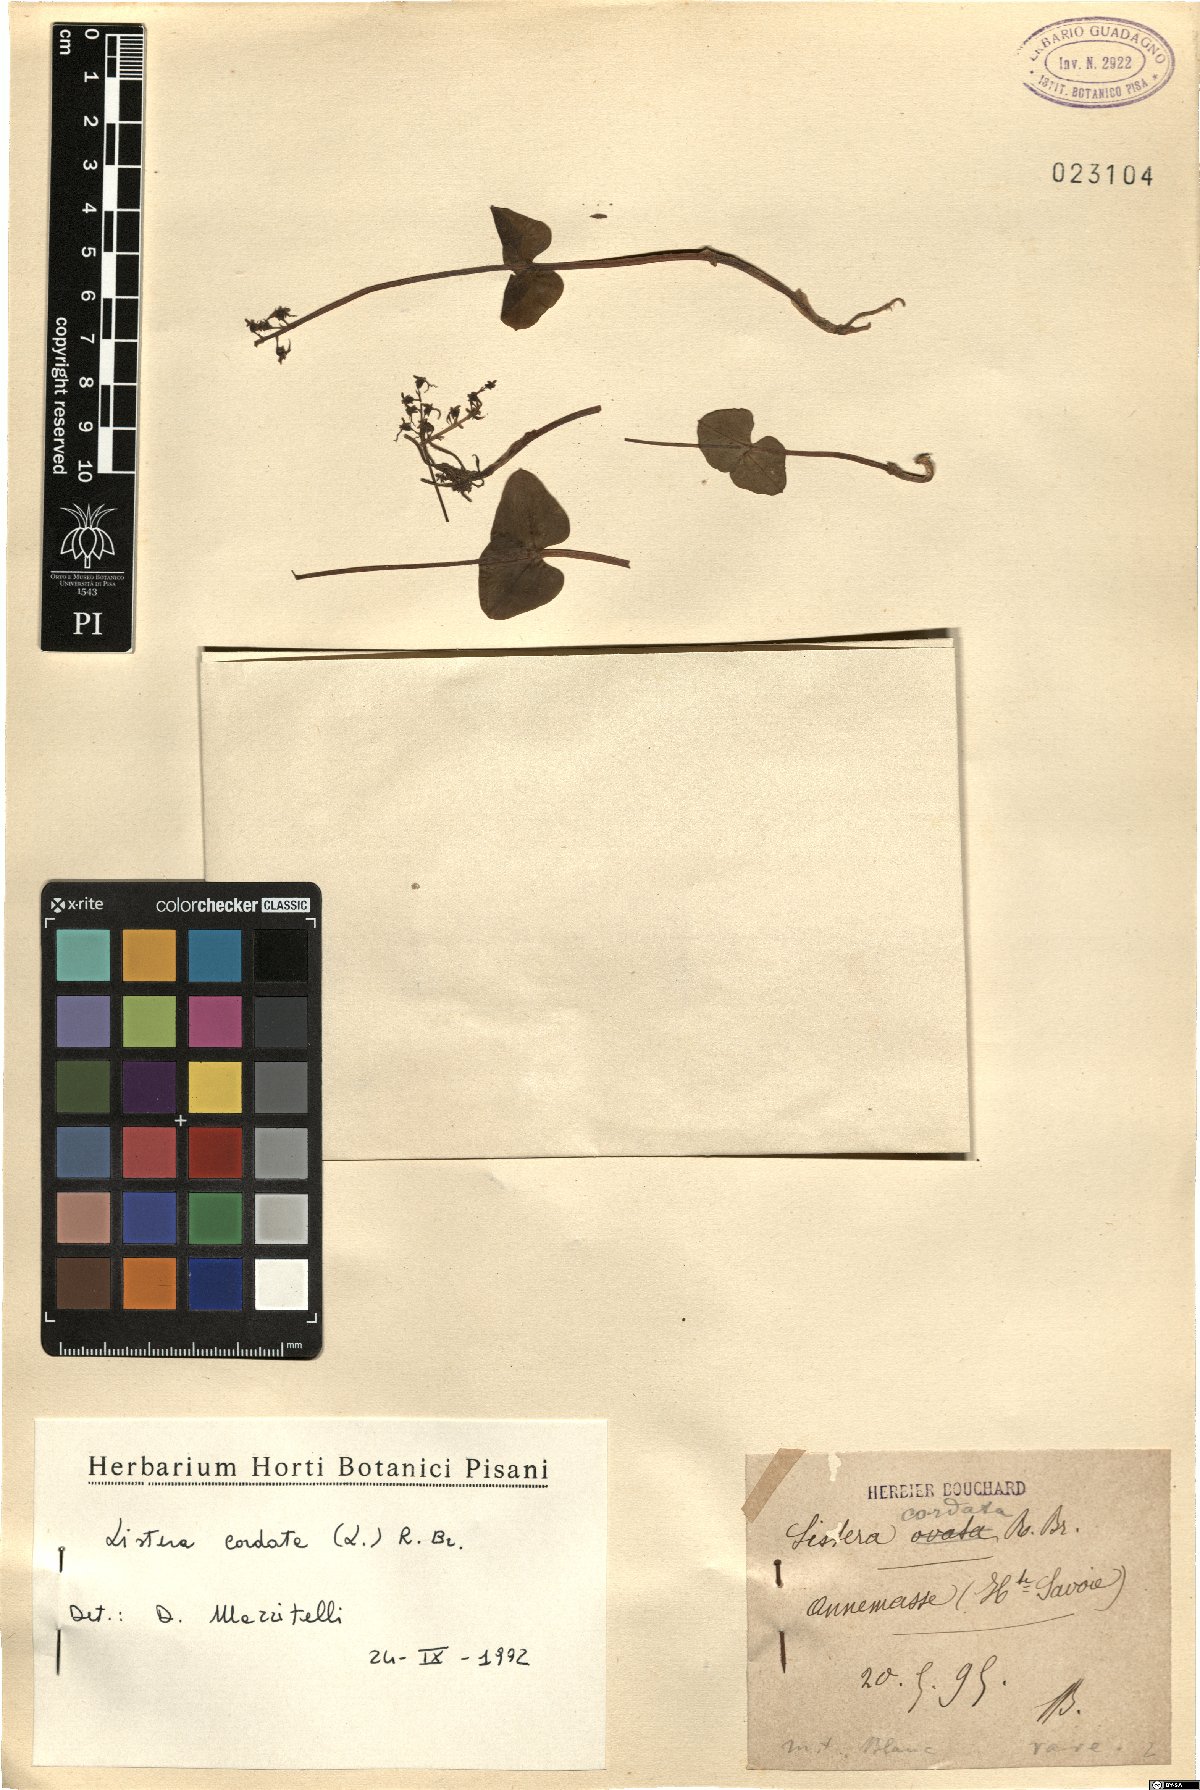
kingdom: Plantae
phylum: Tracheophyta
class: Liliopsida
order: Asparagales
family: Orchidaceae
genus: Neottia
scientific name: Neottia cordata
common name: Lesser twayblade
